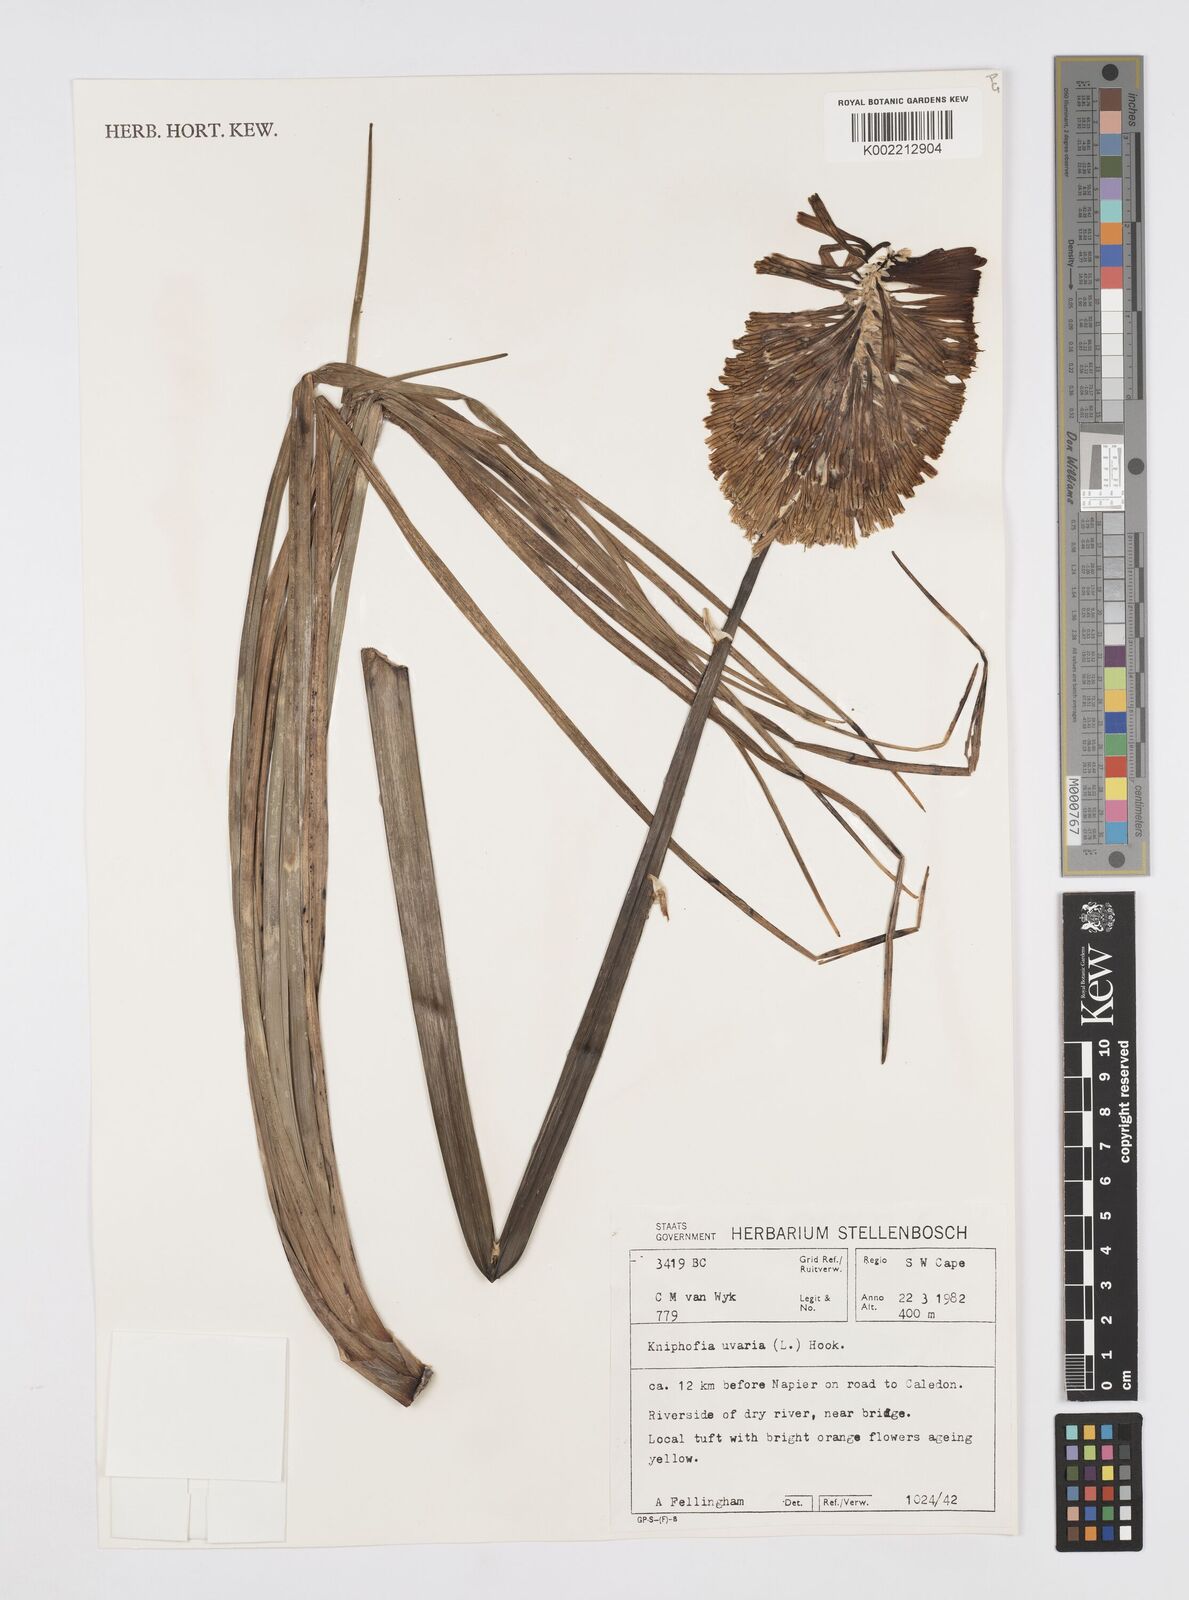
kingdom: Plantae
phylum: Tracheophyta
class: Liliopsida
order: Asparagales
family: Asphodelaceae
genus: Kniphofia
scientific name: Kniphofia uvaria
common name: Red-hot-poker
